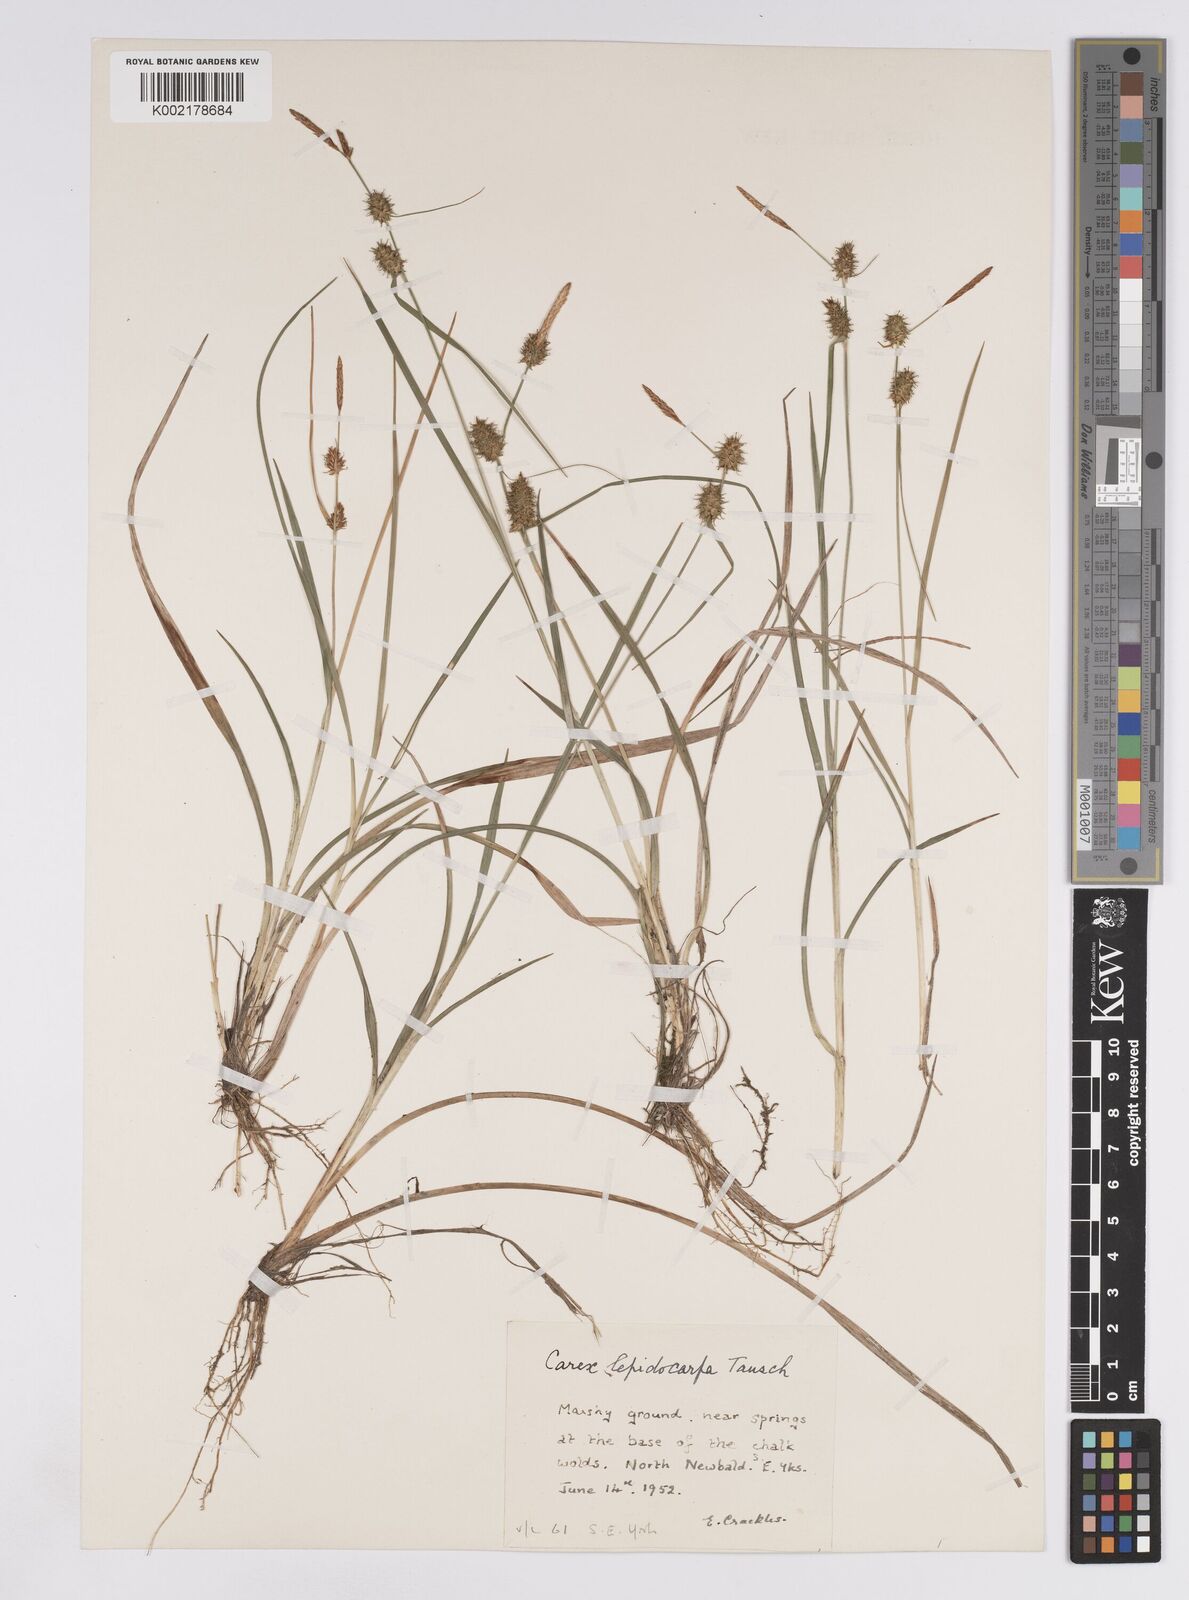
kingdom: Plantae
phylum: Tracheophyta
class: Liliopsida
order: Poales
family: Cyperaceae
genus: Carex
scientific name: Carex lepidocarpa
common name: Long-stalked yellow-sedge
